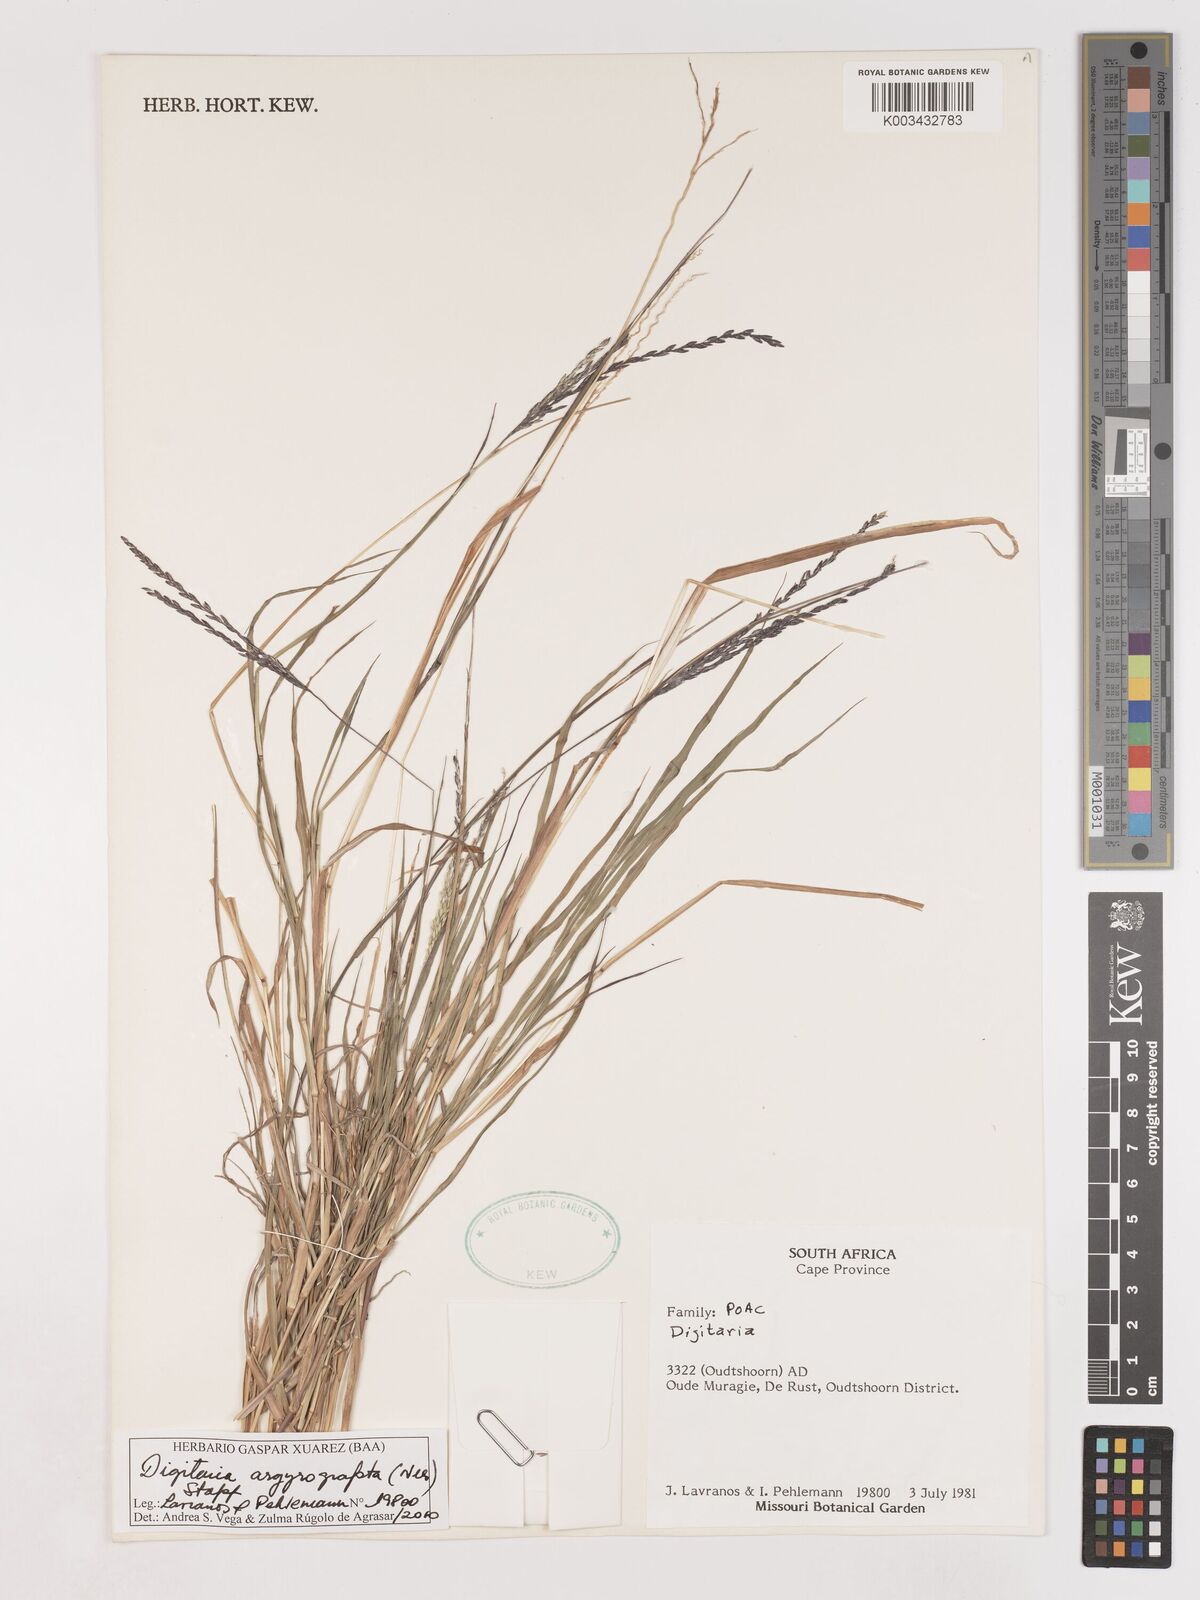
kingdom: Plantae
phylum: Tracheophyta
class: Liliopsida
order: Poales
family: Poaceae
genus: Digitaria
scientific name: Digitaria argyrotricha
